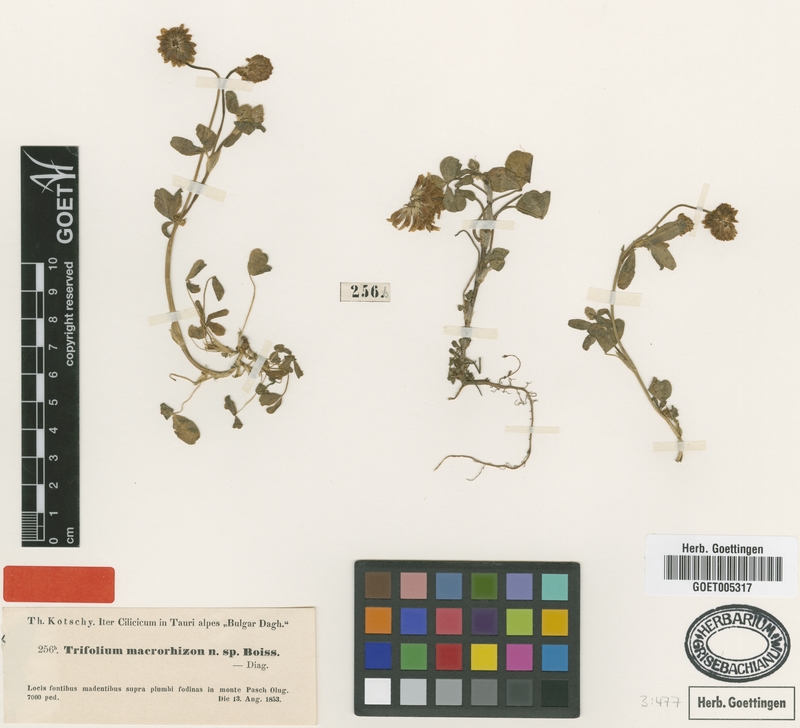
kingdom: Plantae
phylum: Tracheophyta
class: Magnoliopsida
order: Fabales
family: Fabaceae
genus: Trifolium
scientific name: Trifolium repens
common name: White clover
